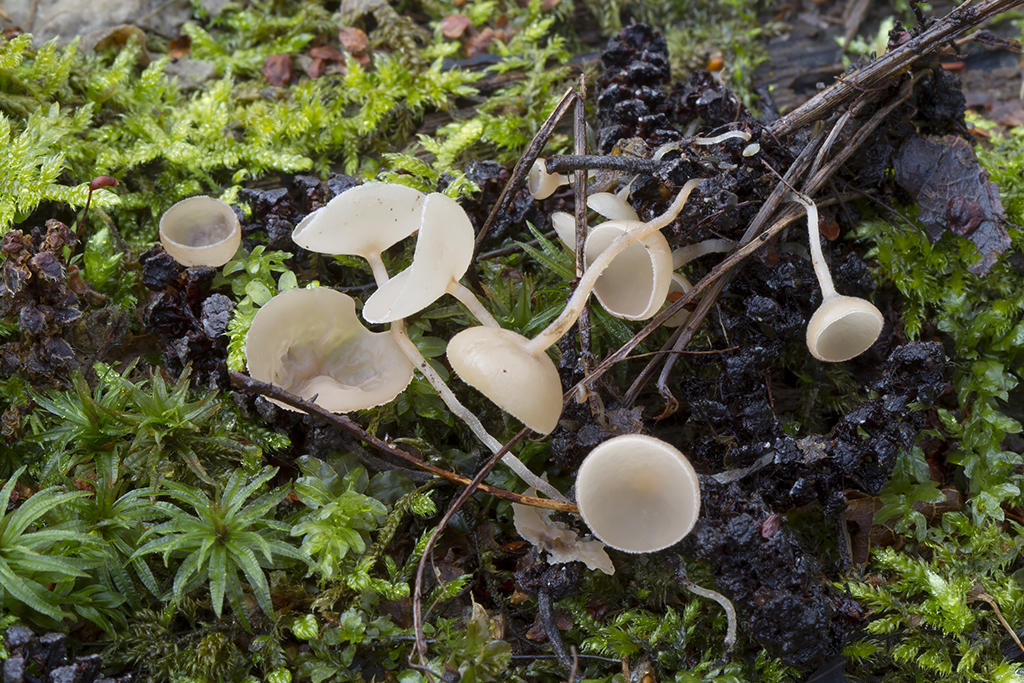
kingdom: Fungi
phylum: Ascomycota
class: Leotiomycetes
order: Helotiales
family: Sclerotiniaceae
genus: Ciboria
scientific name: Ciboria amentacea
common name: ellerakle-knoldskive
